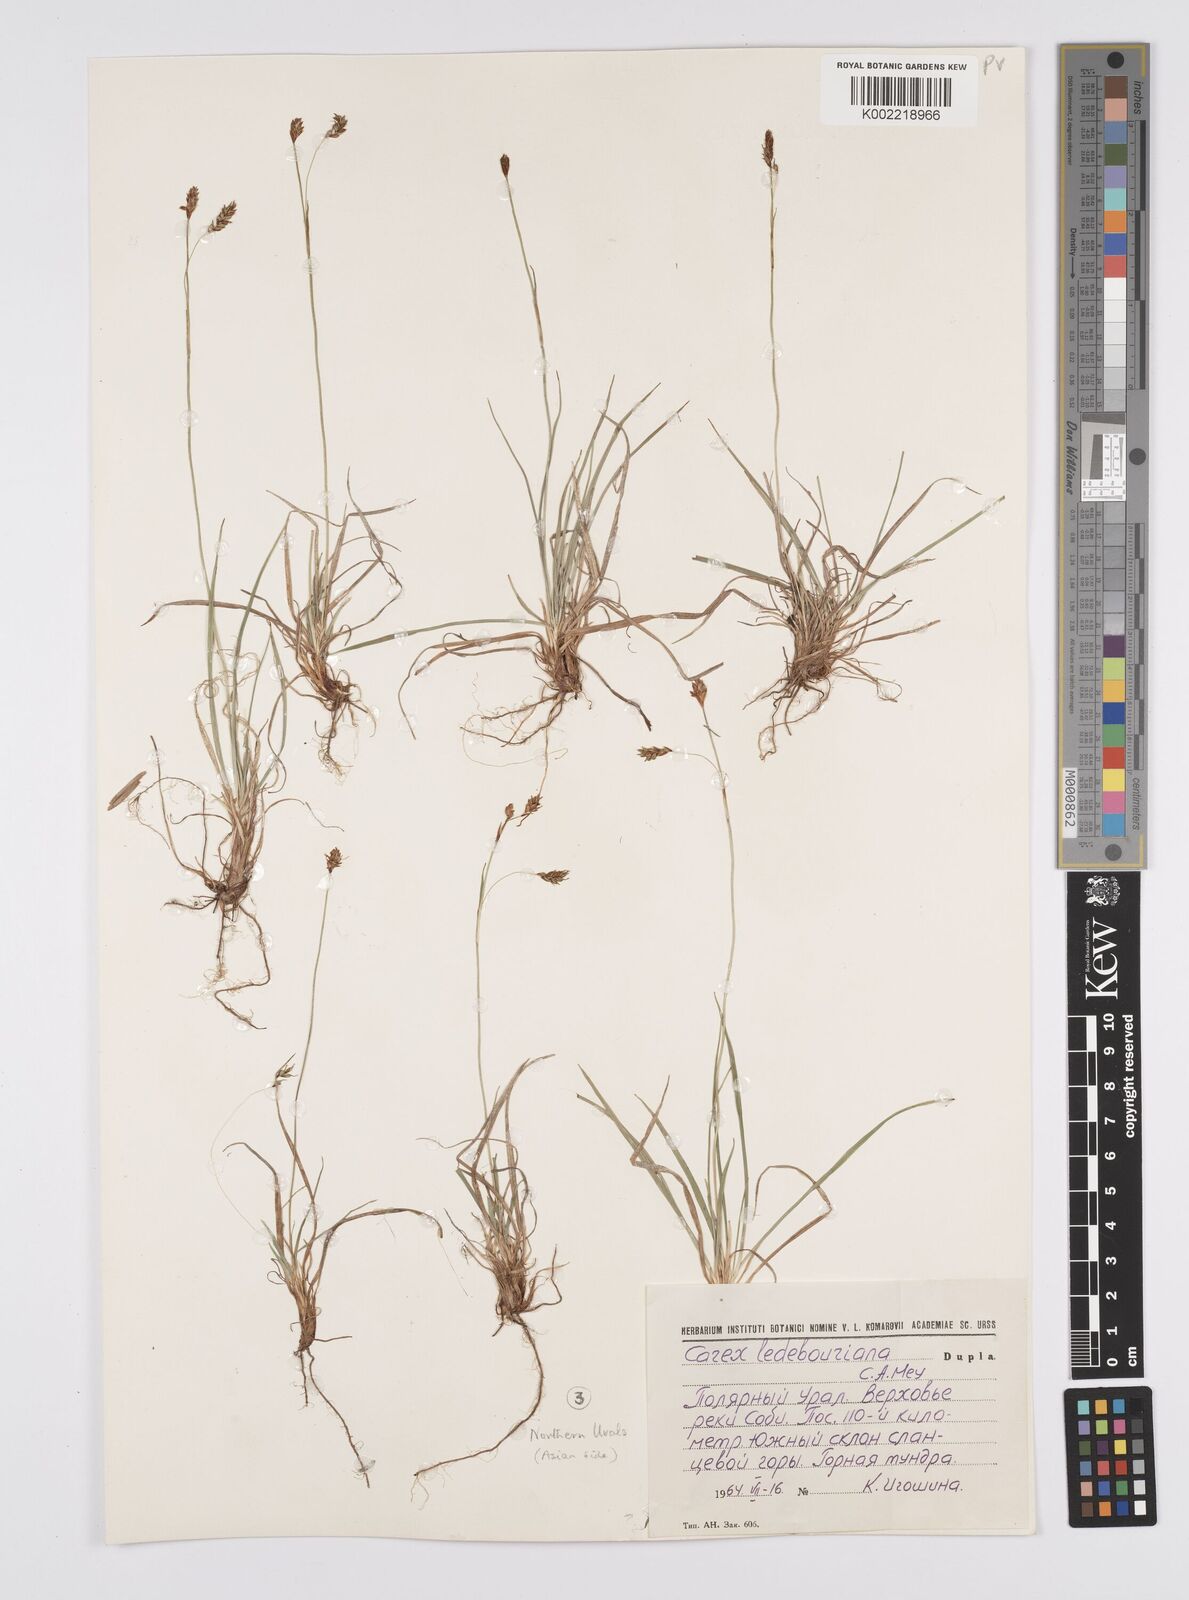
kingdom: Plantae
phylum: Tracheophyta
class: Liliopsida
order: Poales
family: Cyperaceae
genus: Carex
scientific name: Carex melanostachya
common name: Black-spiked sedge
